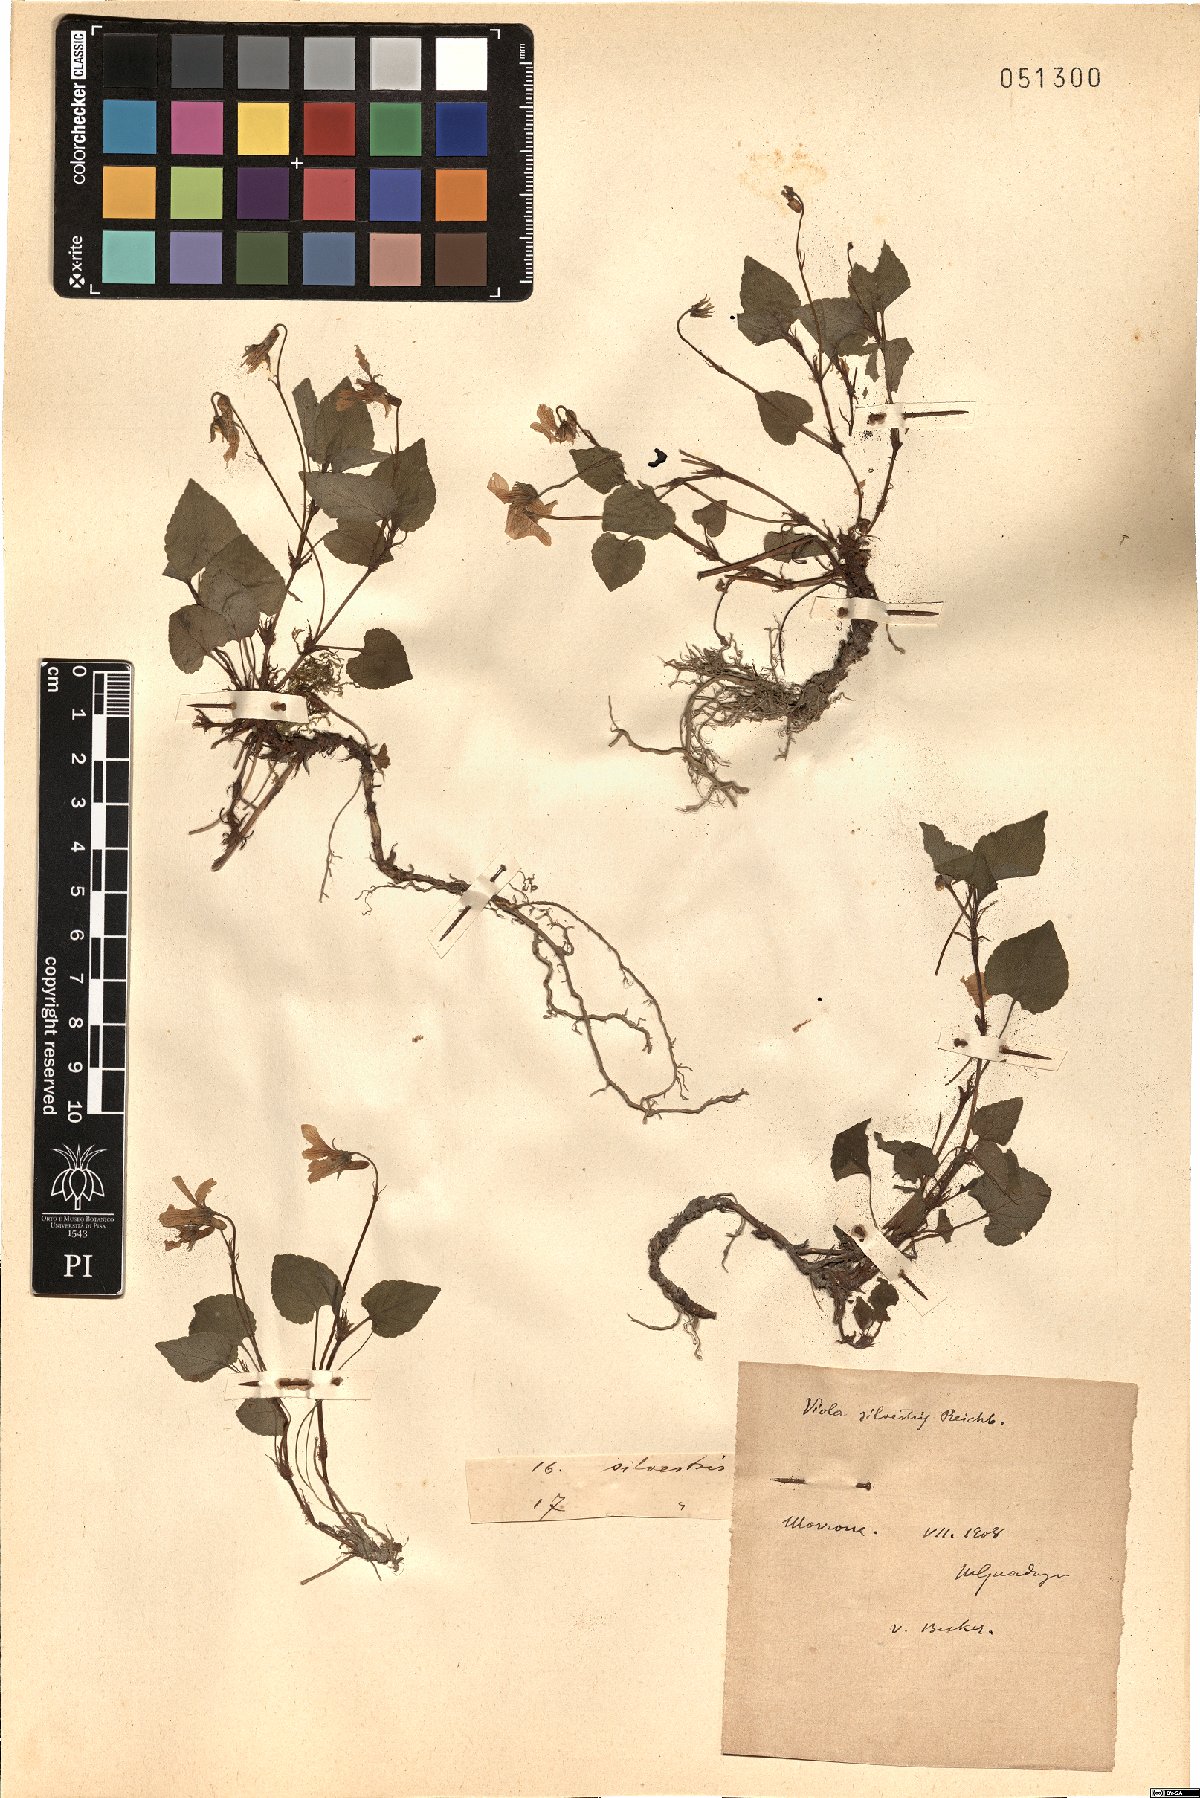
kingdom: Plantae
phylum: Tracheophyta
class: Magnoliopsida
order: Malpighiales
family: Violaceae
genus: Viola
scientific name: Viola canina
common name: Heath dog-violet
